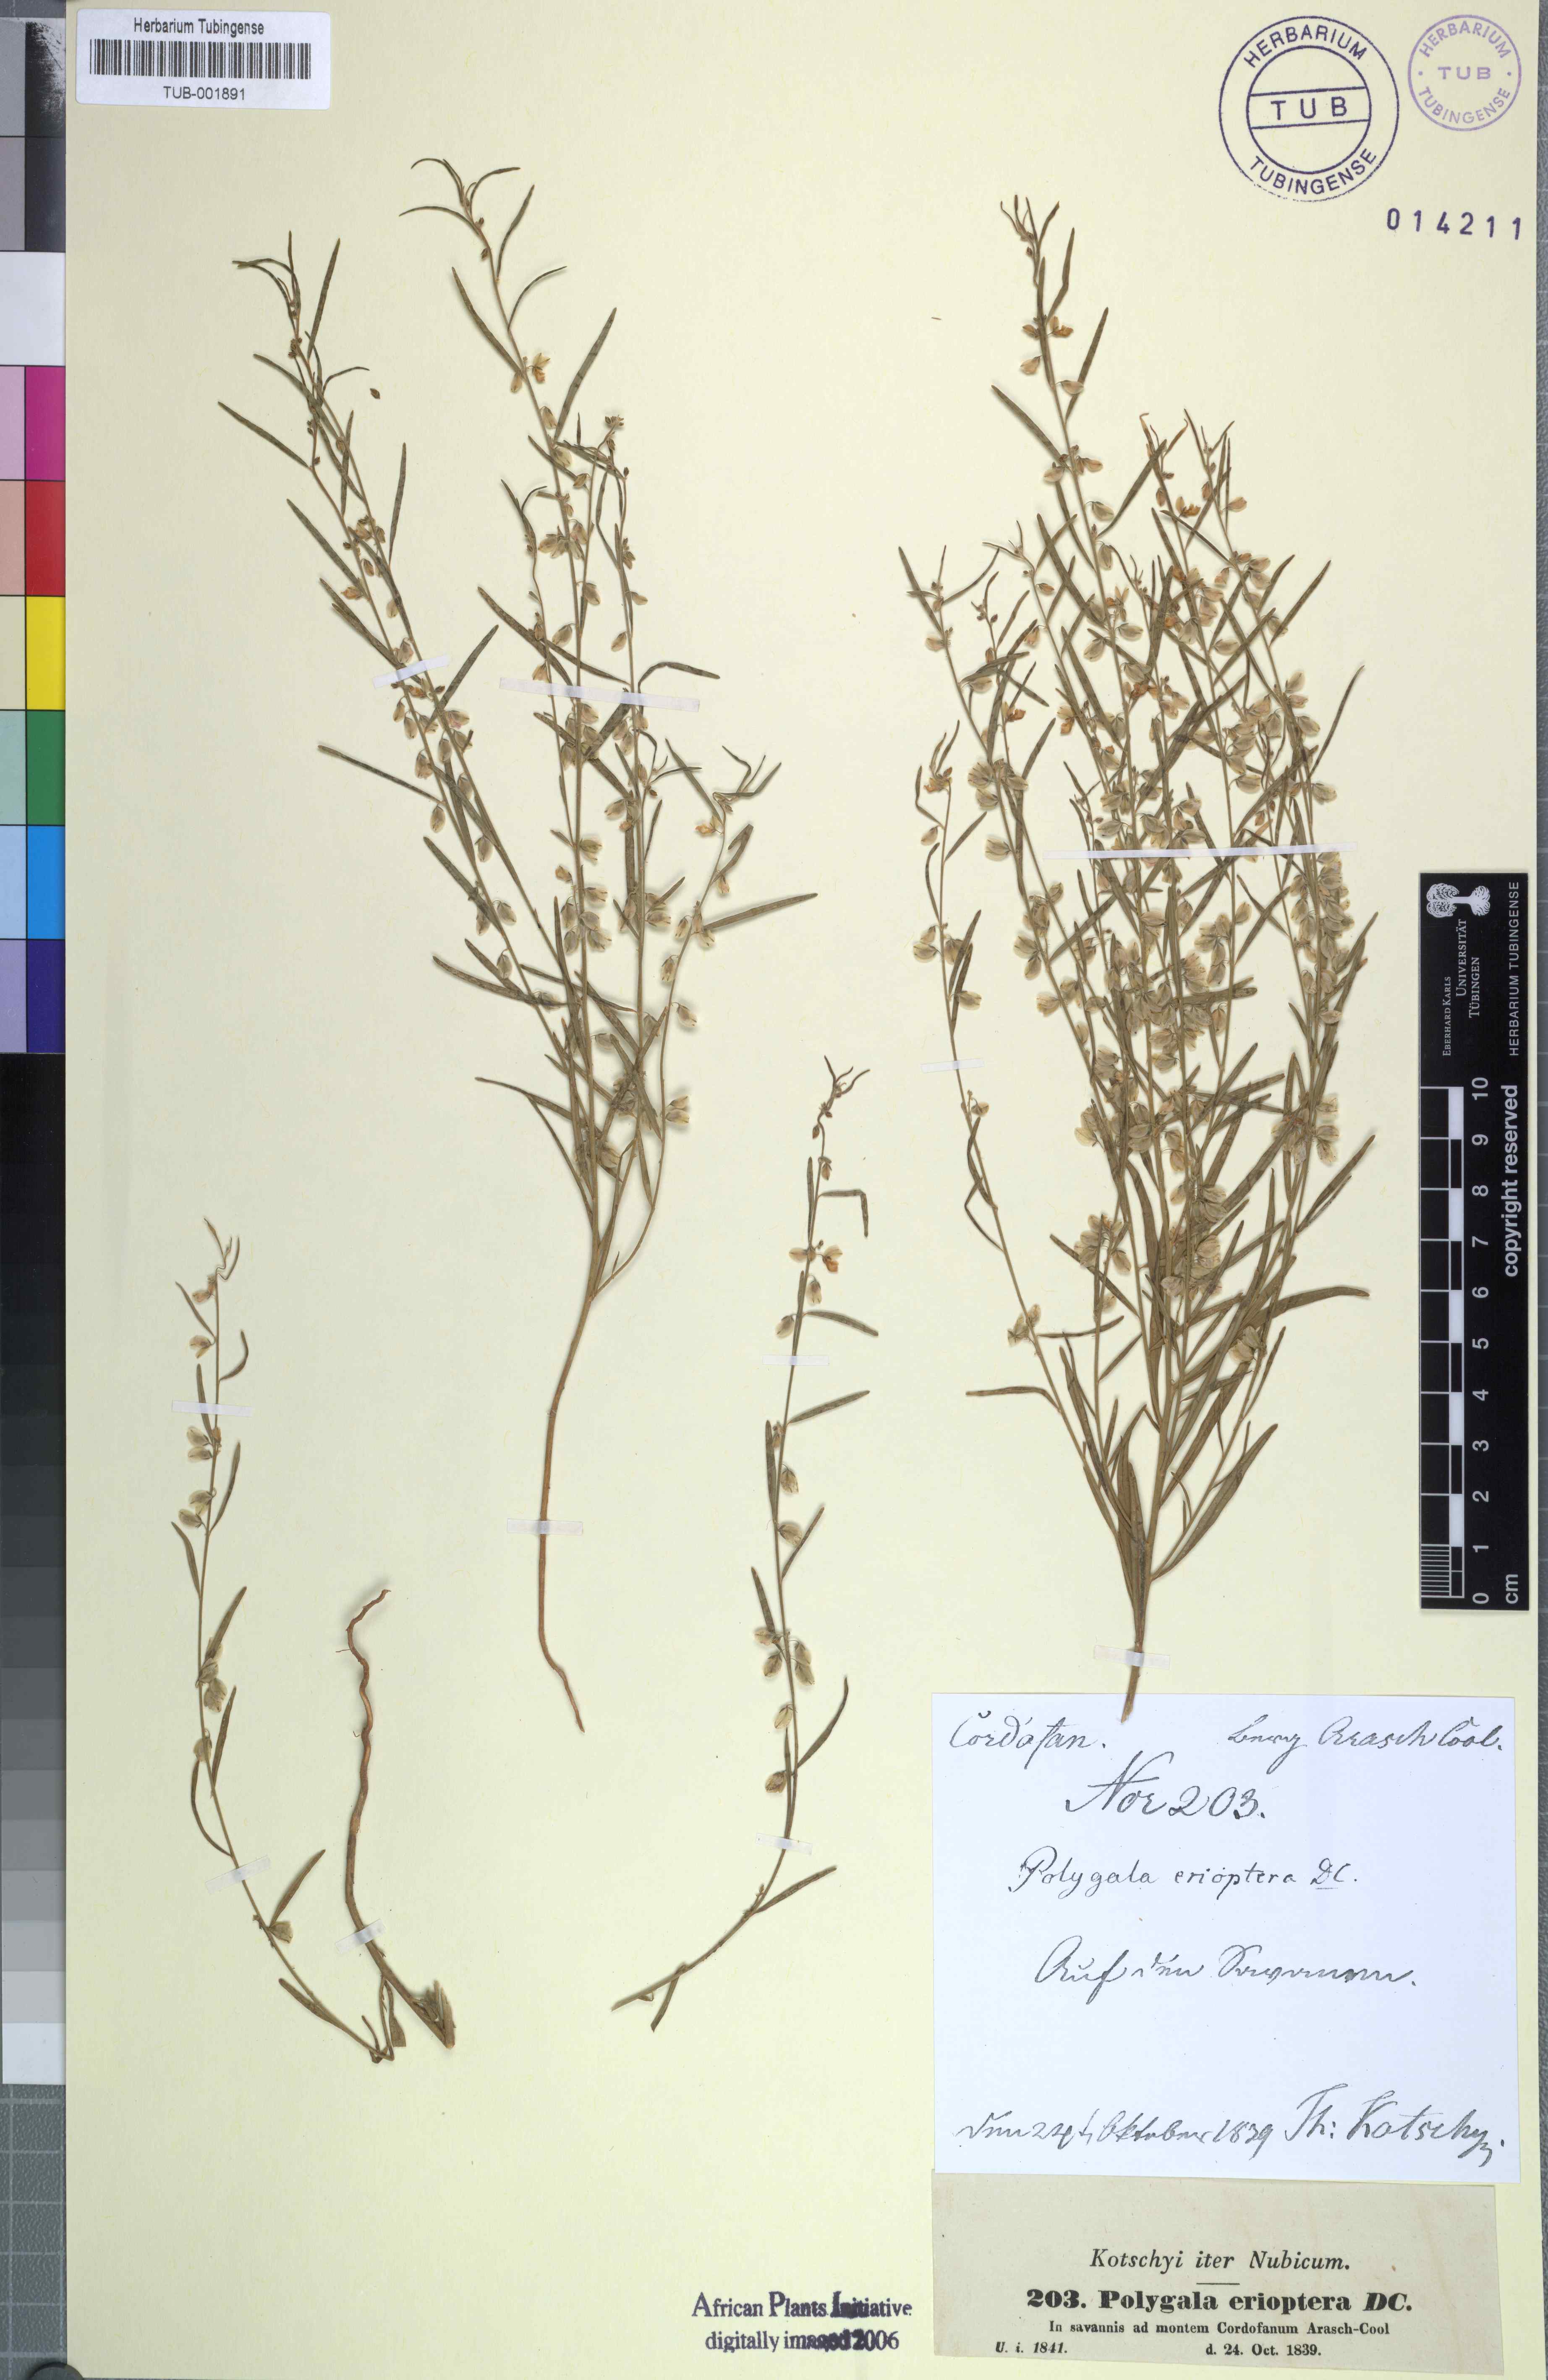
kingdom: Plantae
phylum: Tracheophyta
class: Magnoliopsida
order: Fabales
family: Polygalaceae
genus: Polygala
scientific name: Polygala erioptera
